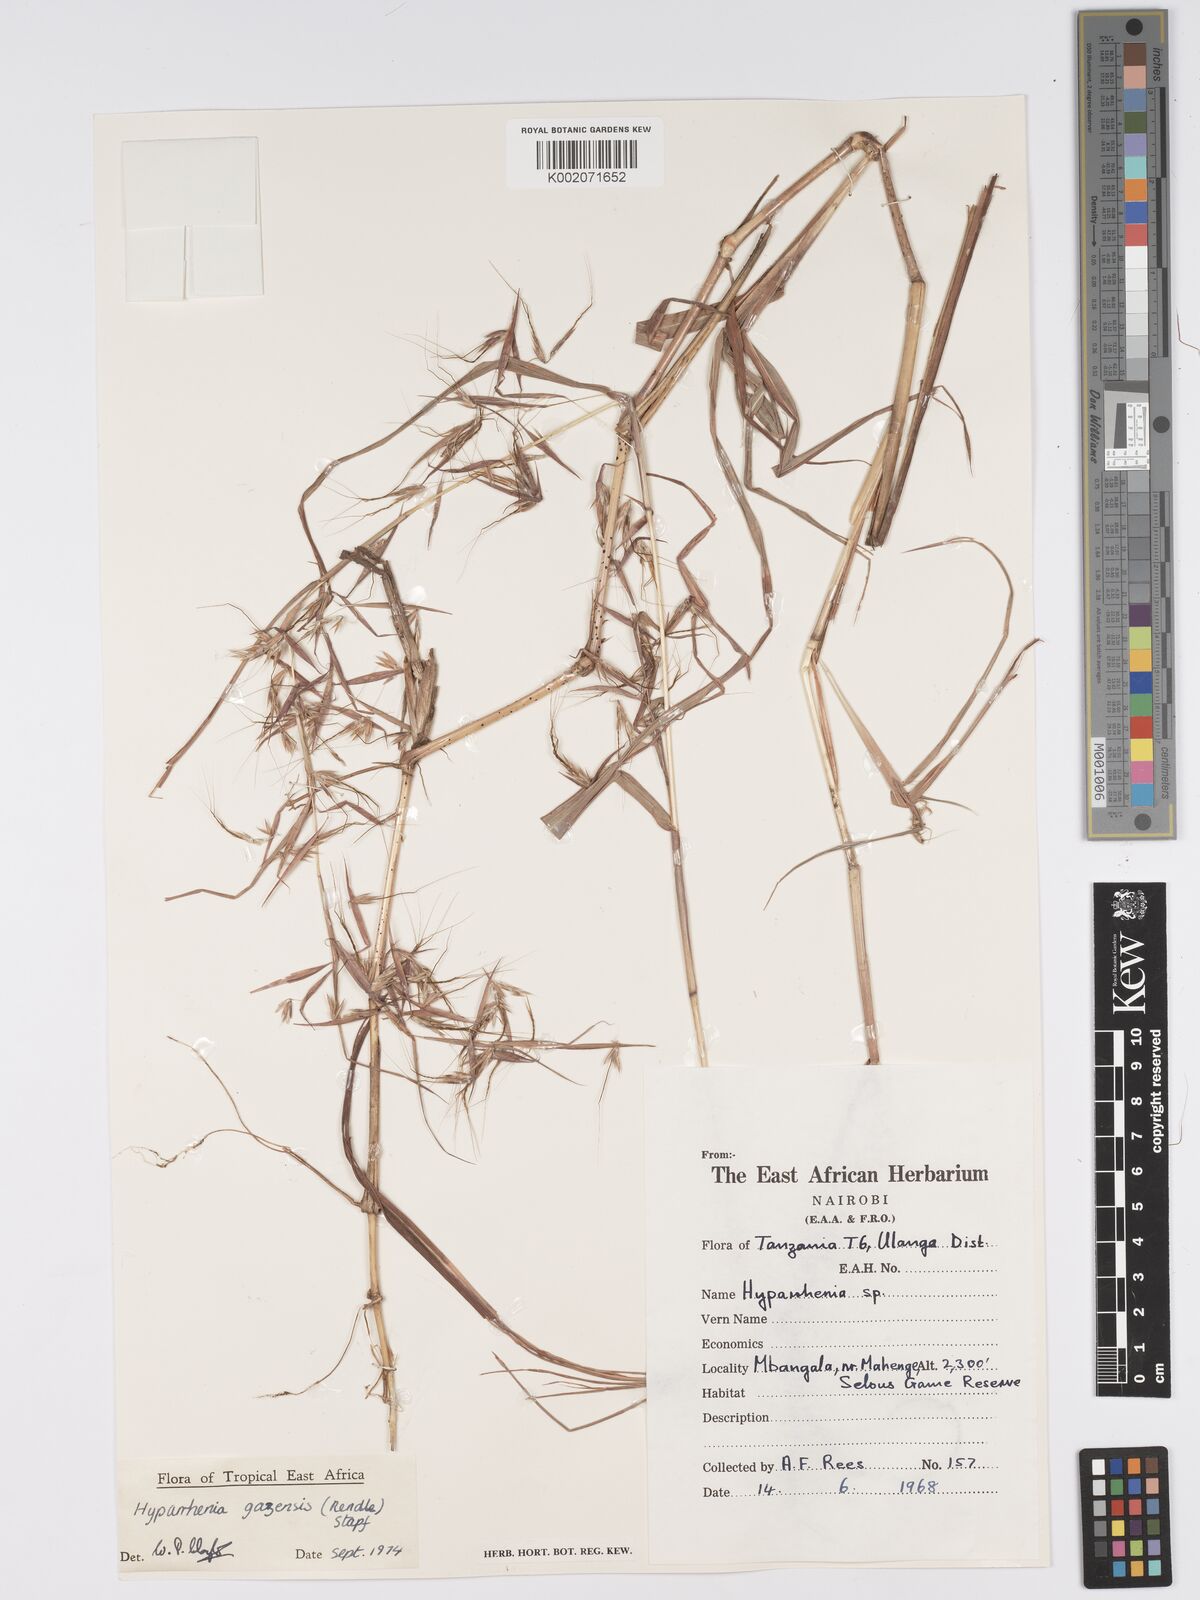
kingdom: Plantae
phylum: Tracheophyta
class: Liliopsida
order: Poales
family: Poaceae
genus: Hyparrhenia
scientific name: Hyparrhenia gazensis
